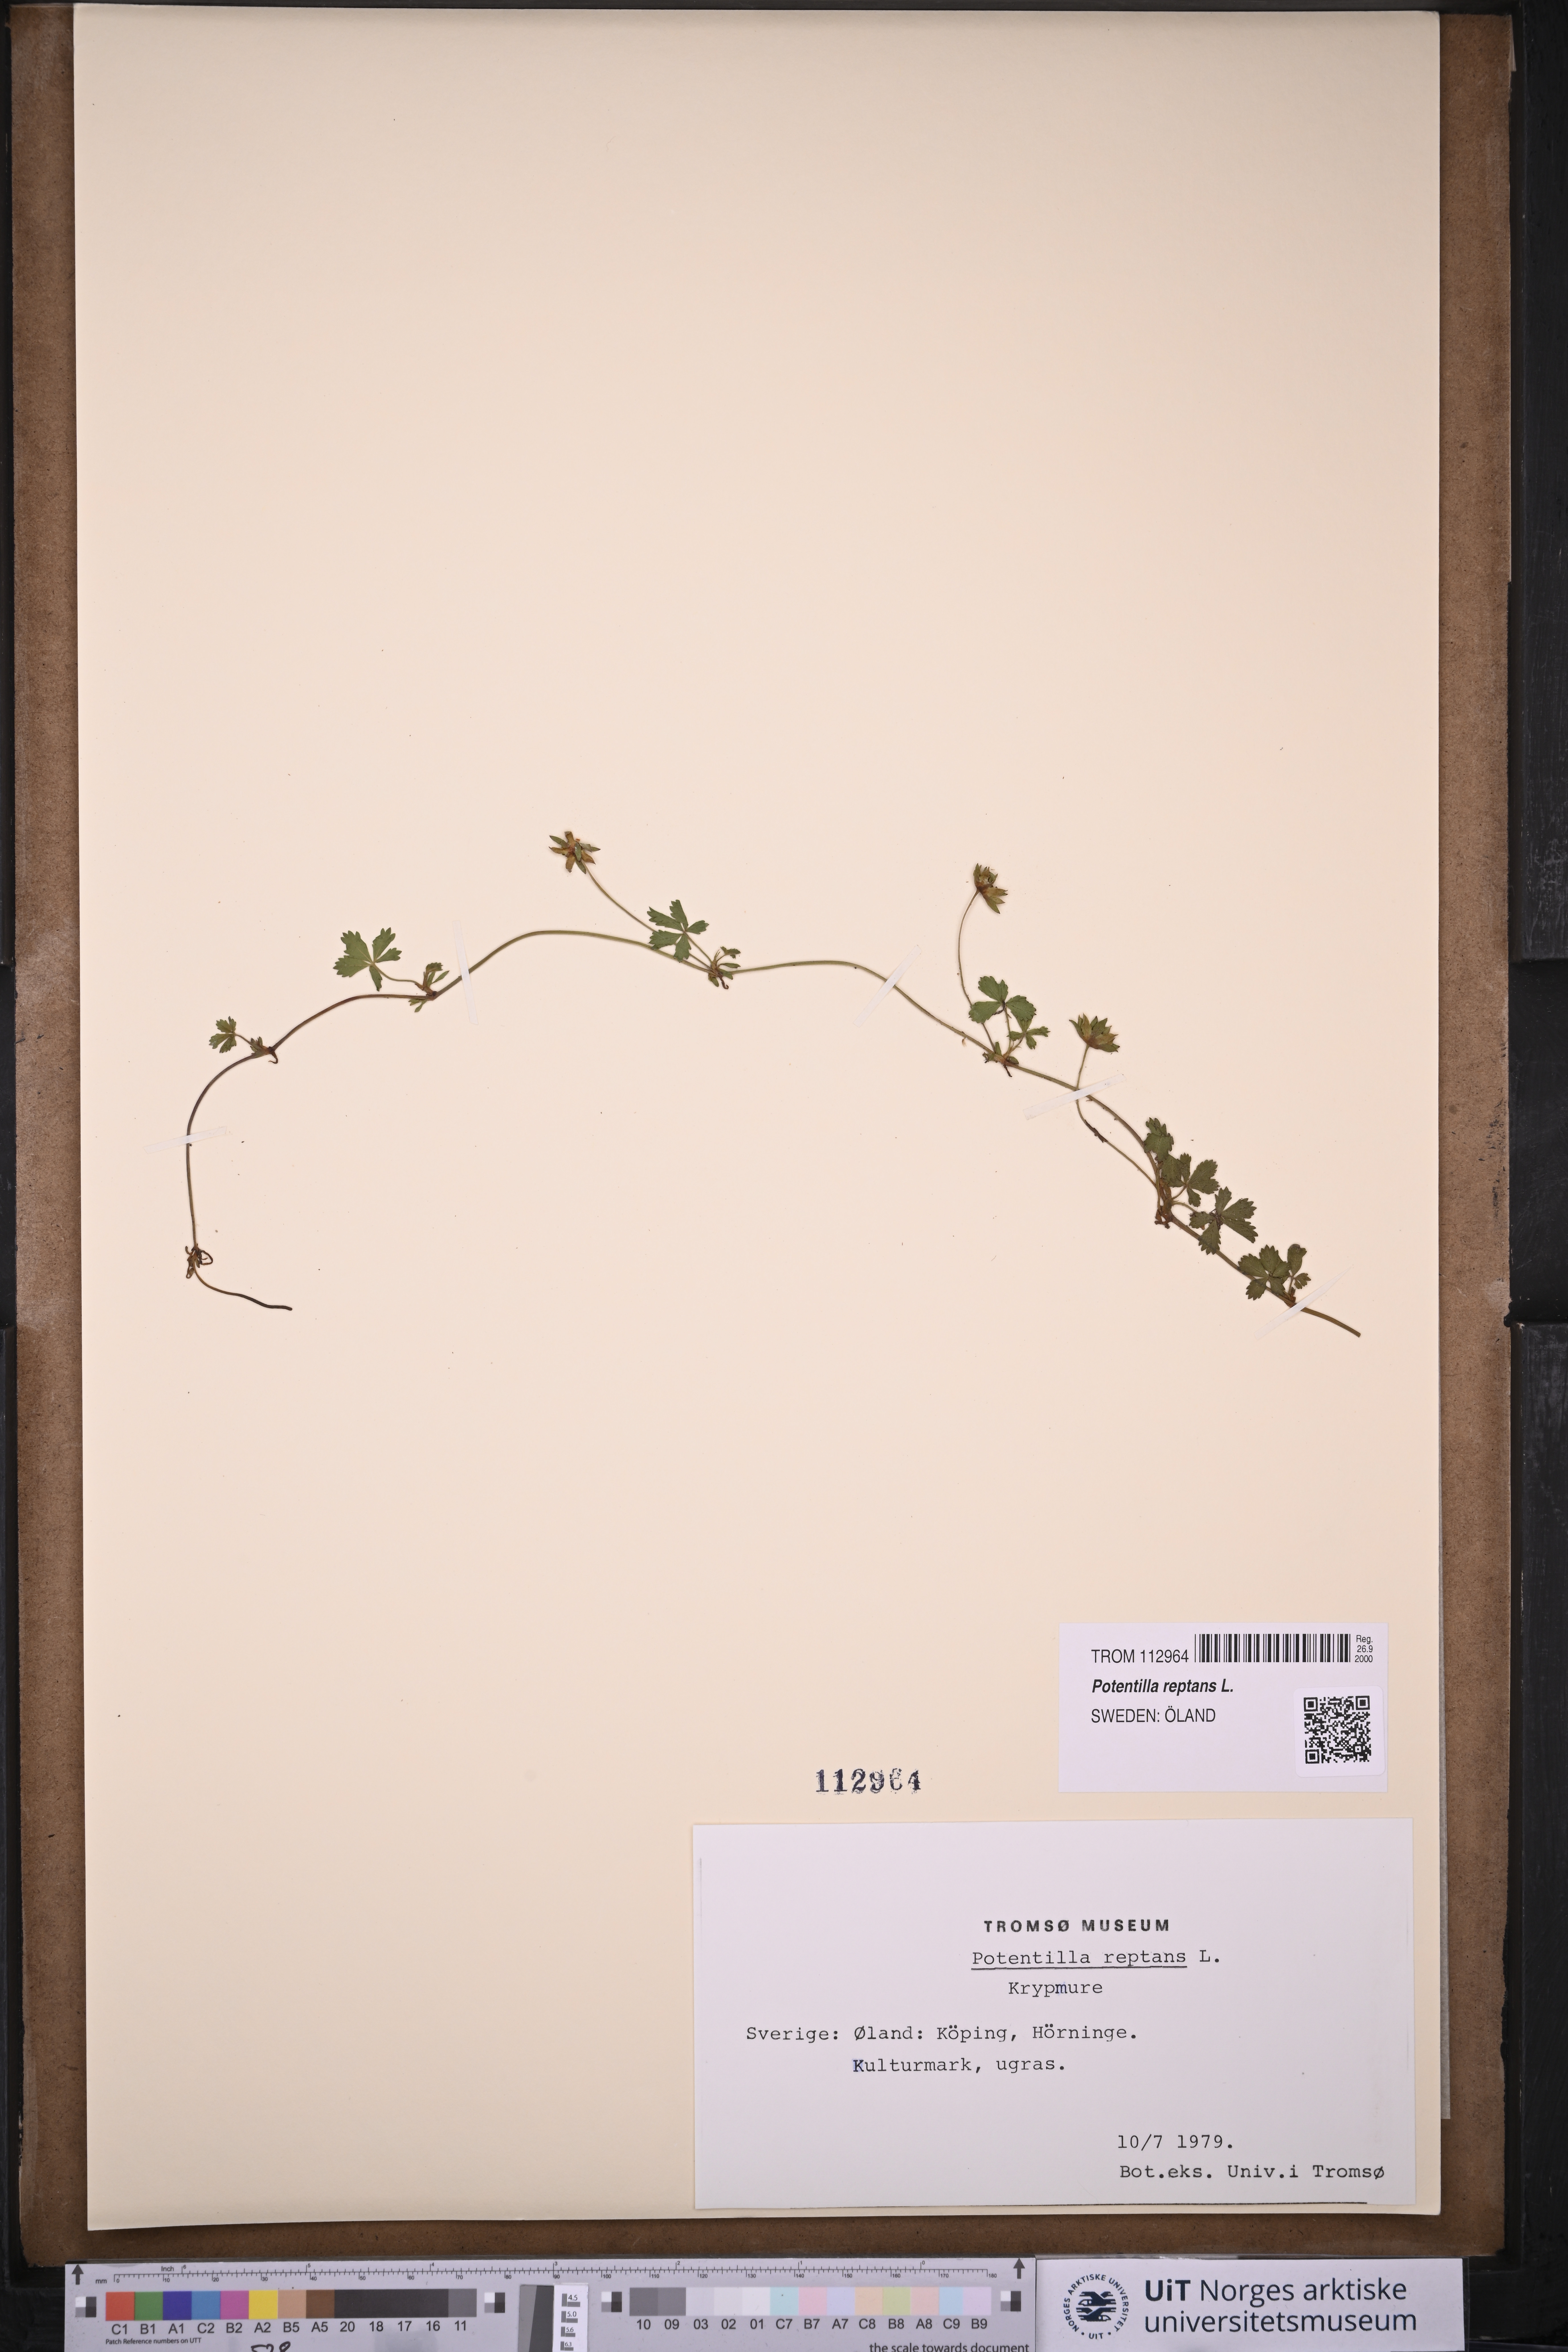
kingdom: Plantae
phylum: Tracheophyta
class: Magnoliopsida
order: Rosales
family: Rosaceae
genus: Potentilla
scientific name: Potentilla reptans
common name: Creeping cinquefoil
